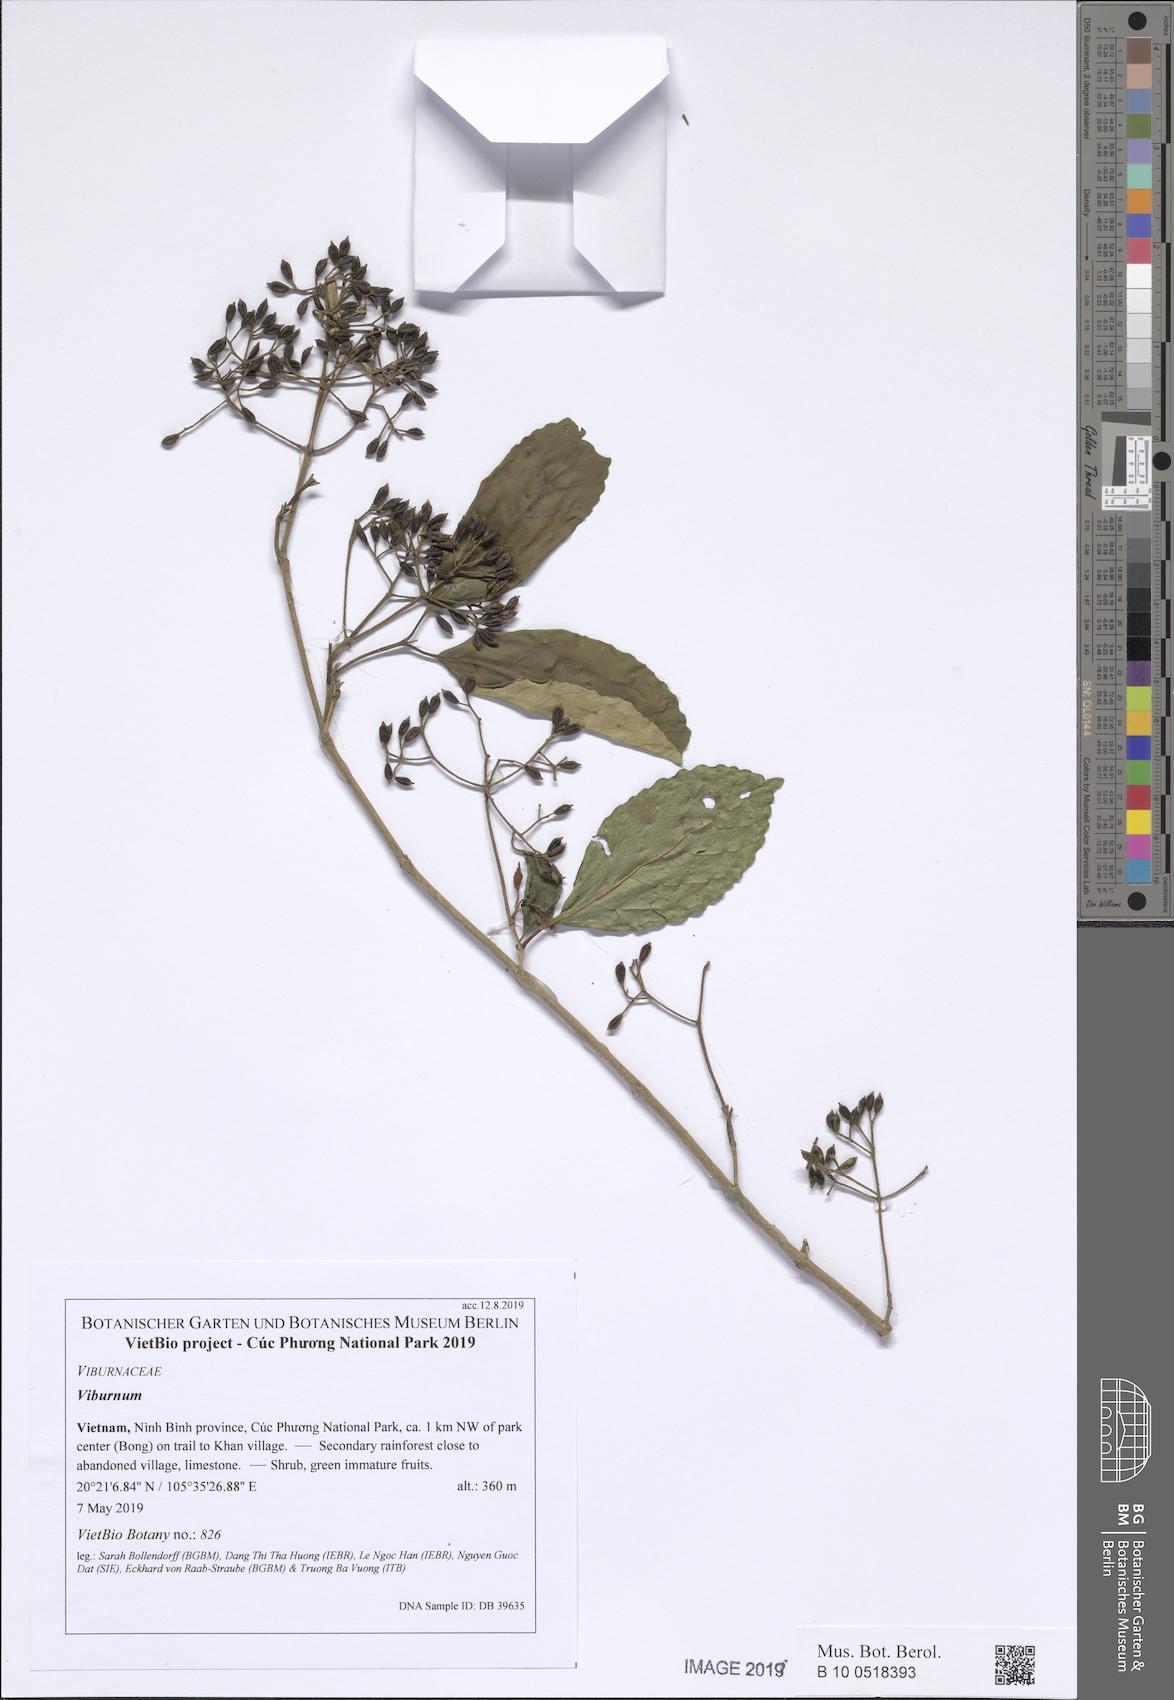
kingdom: Plantae
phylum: Tracheophyta
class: Magnoliopsida
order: Dipsacales
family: Viburnaceae
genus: Viburnum
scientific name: Viburnum
